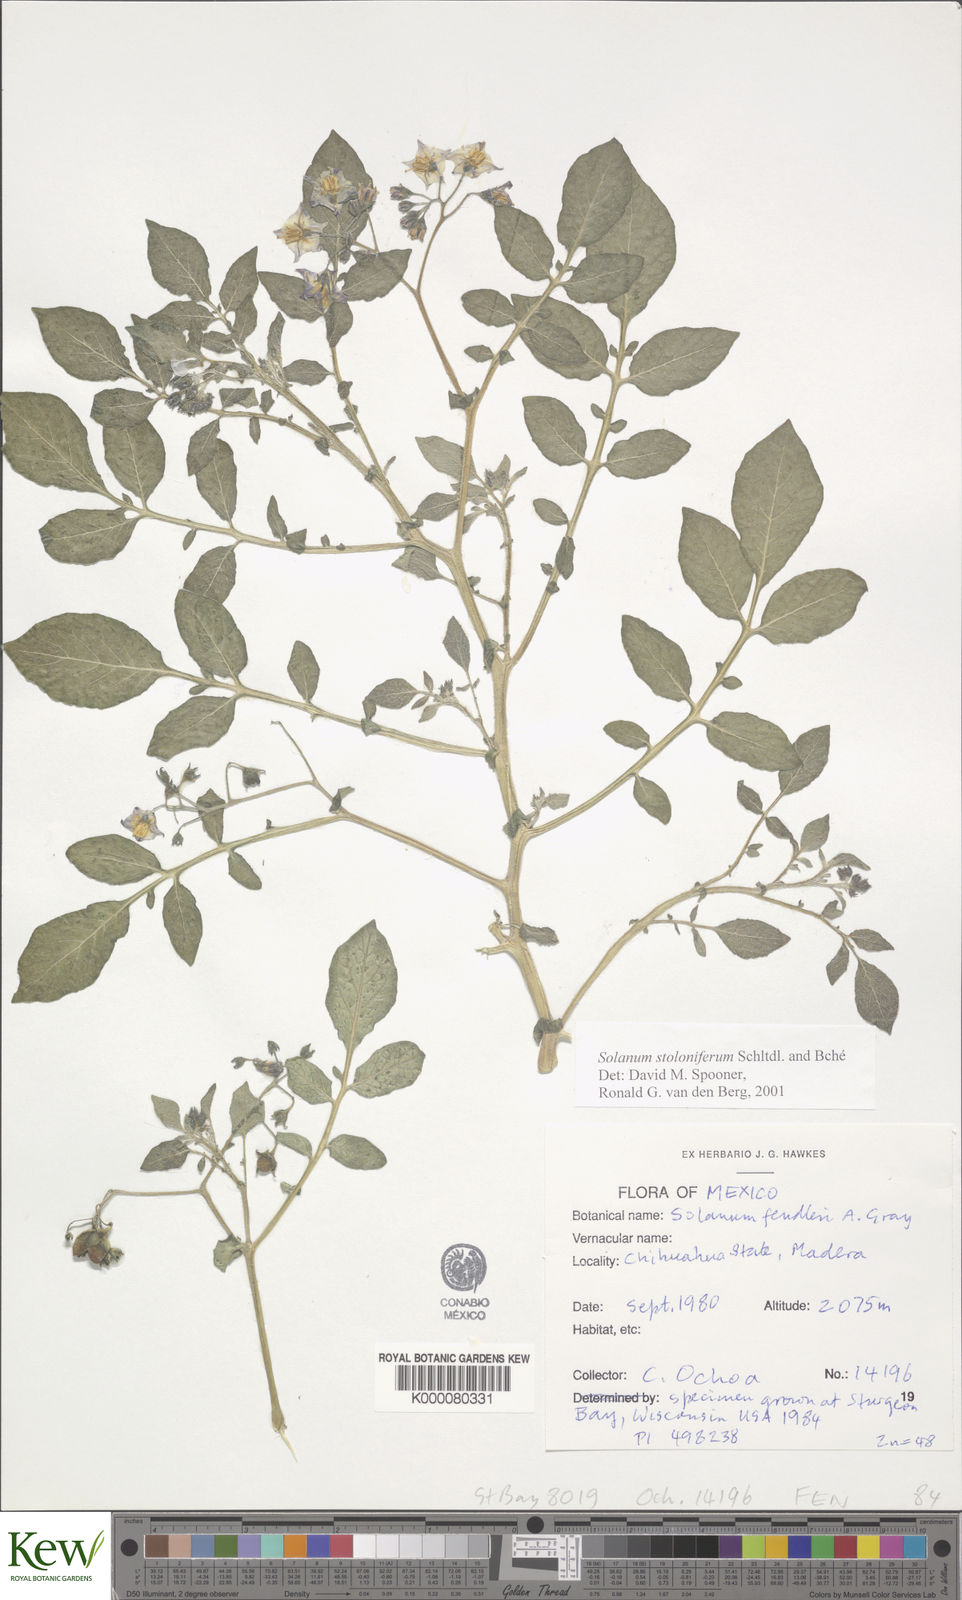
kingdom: Plantae
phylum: Tracheophyta
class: Magnoliopsida
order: Solanales
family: Solanaceae
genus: Solanum
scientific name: Solanum stoloniferum
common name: Fendler's nighshade
